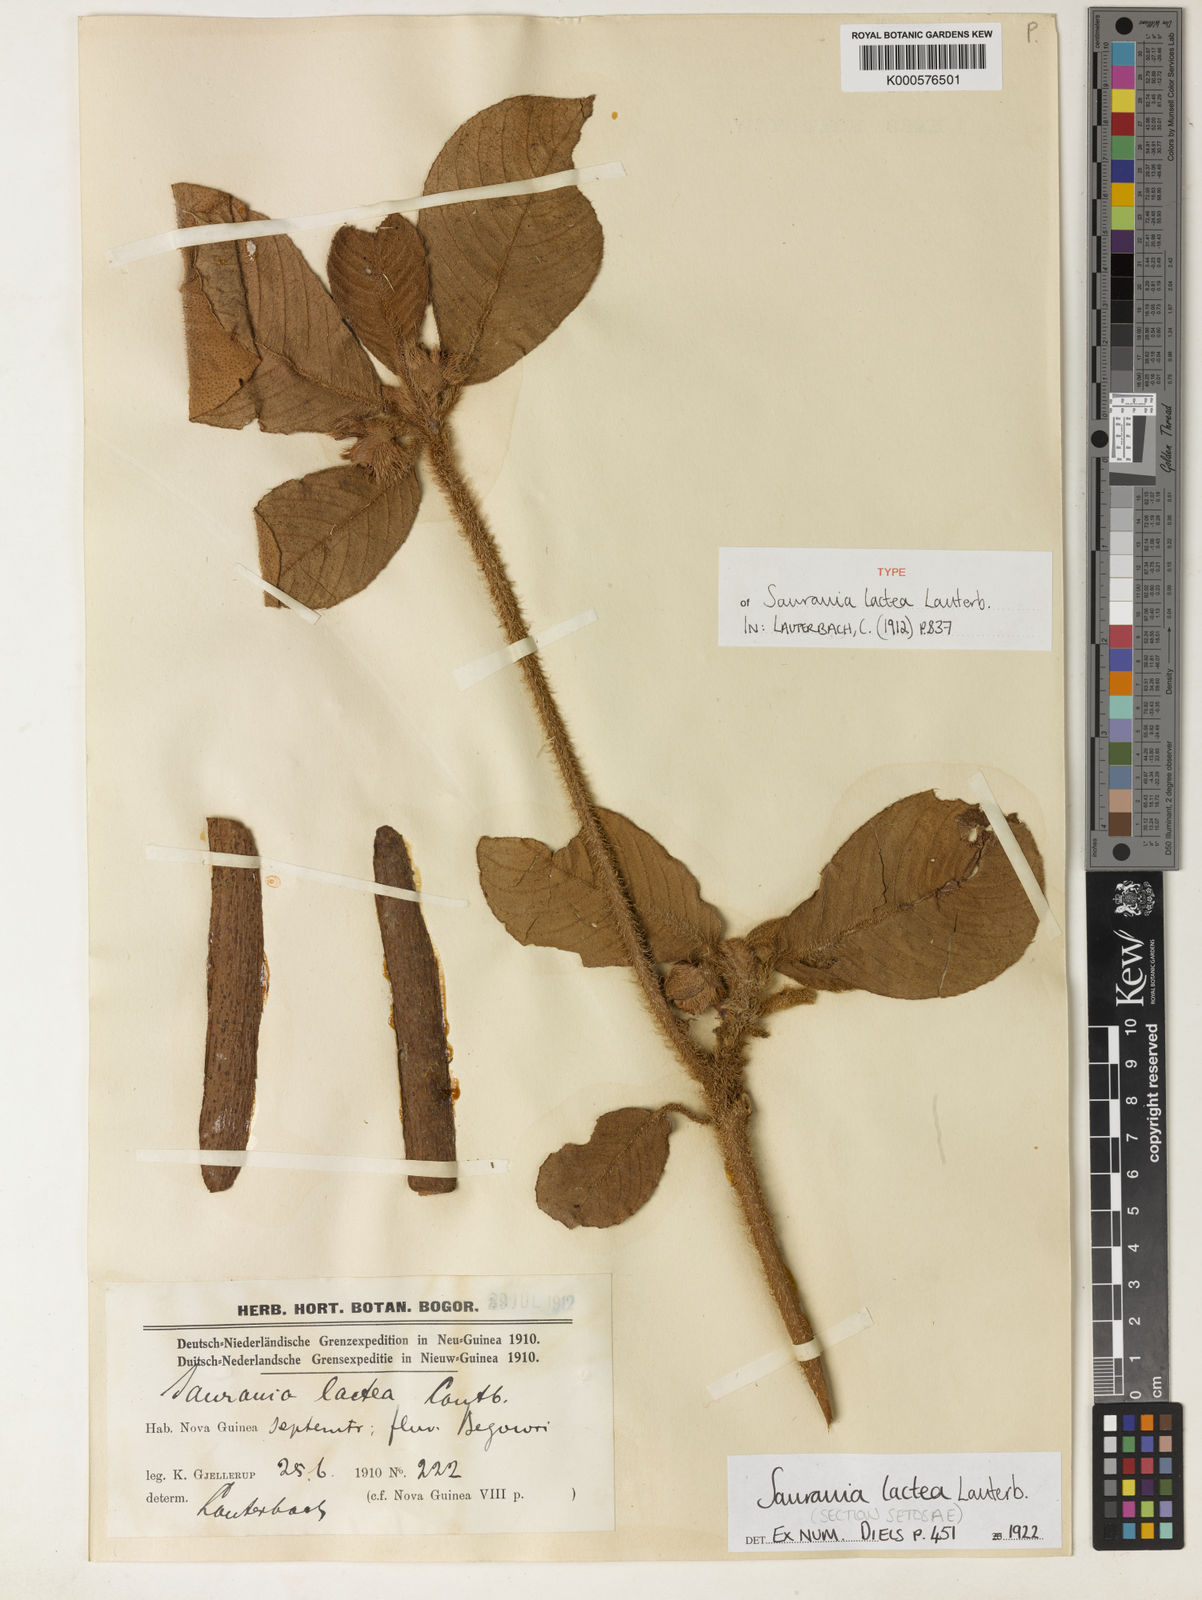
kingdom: Plantae
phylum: Tracheophyta
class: Magnoliopsida
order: Ericales
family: Actinidiaceae
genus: Saurauia
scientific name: Saurauia lactea
